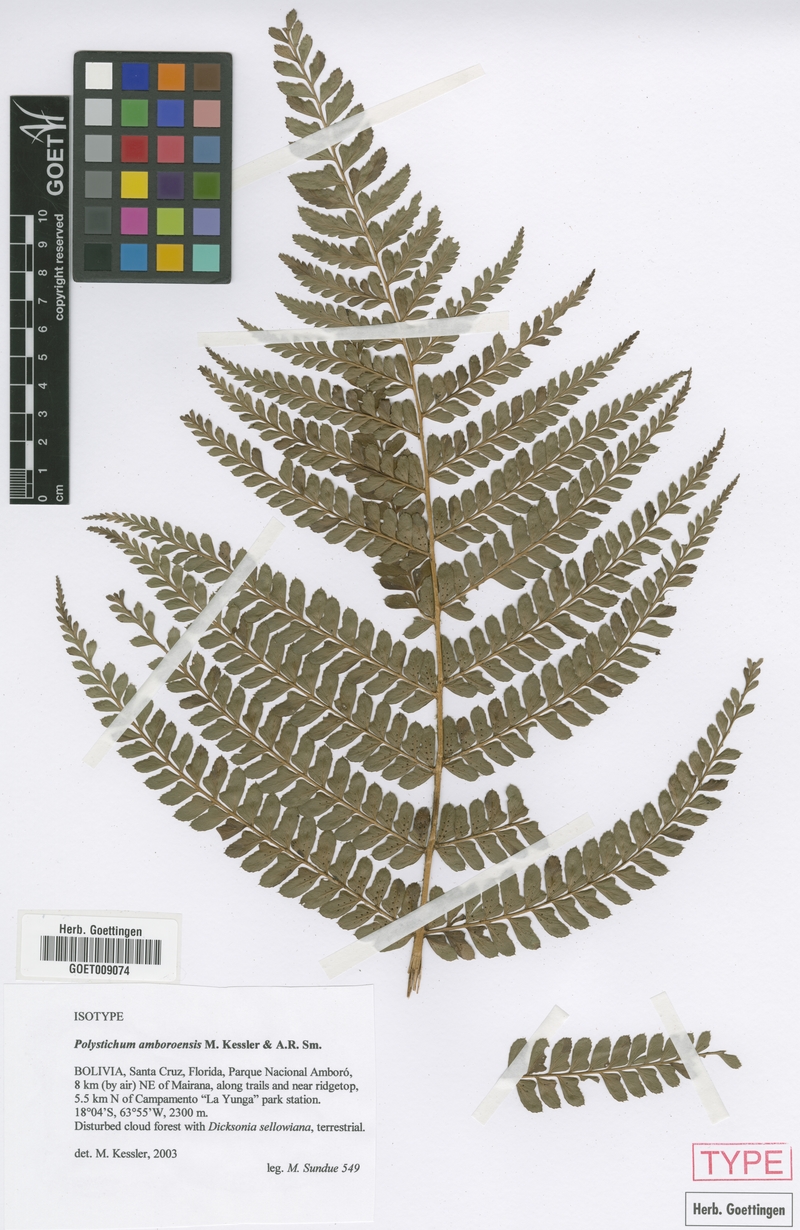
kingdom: Plantae
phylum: Tracheophyta
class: Polypodiopsida
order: Polypodiales
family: Dryopteridaceae
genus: Polystichum
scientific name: Polystichum amboroensis
